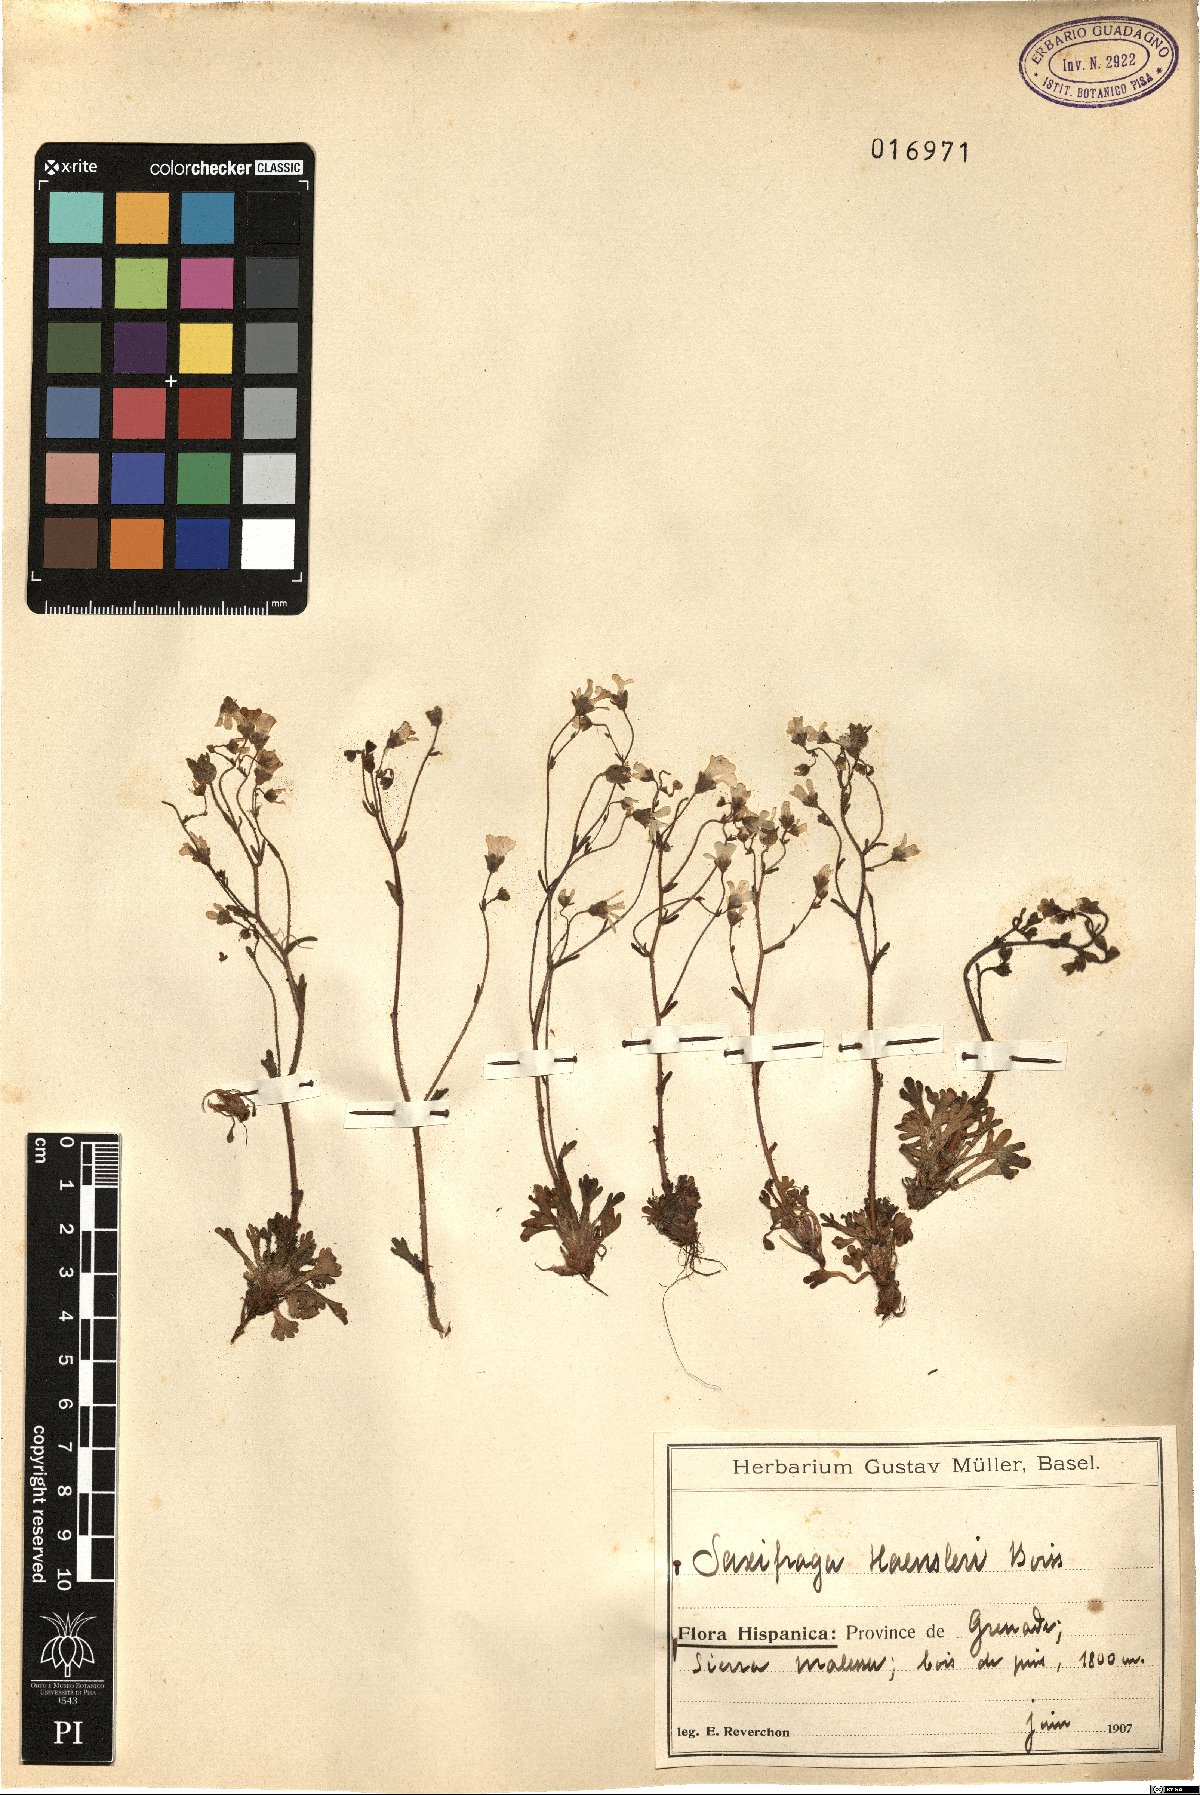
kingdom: Plantae
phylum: Tracheophyta
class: Magnoliopsida
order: Saxifragales
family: Saxifragaceae
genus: Saxifraga
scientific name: Saxifraga haenseleri
